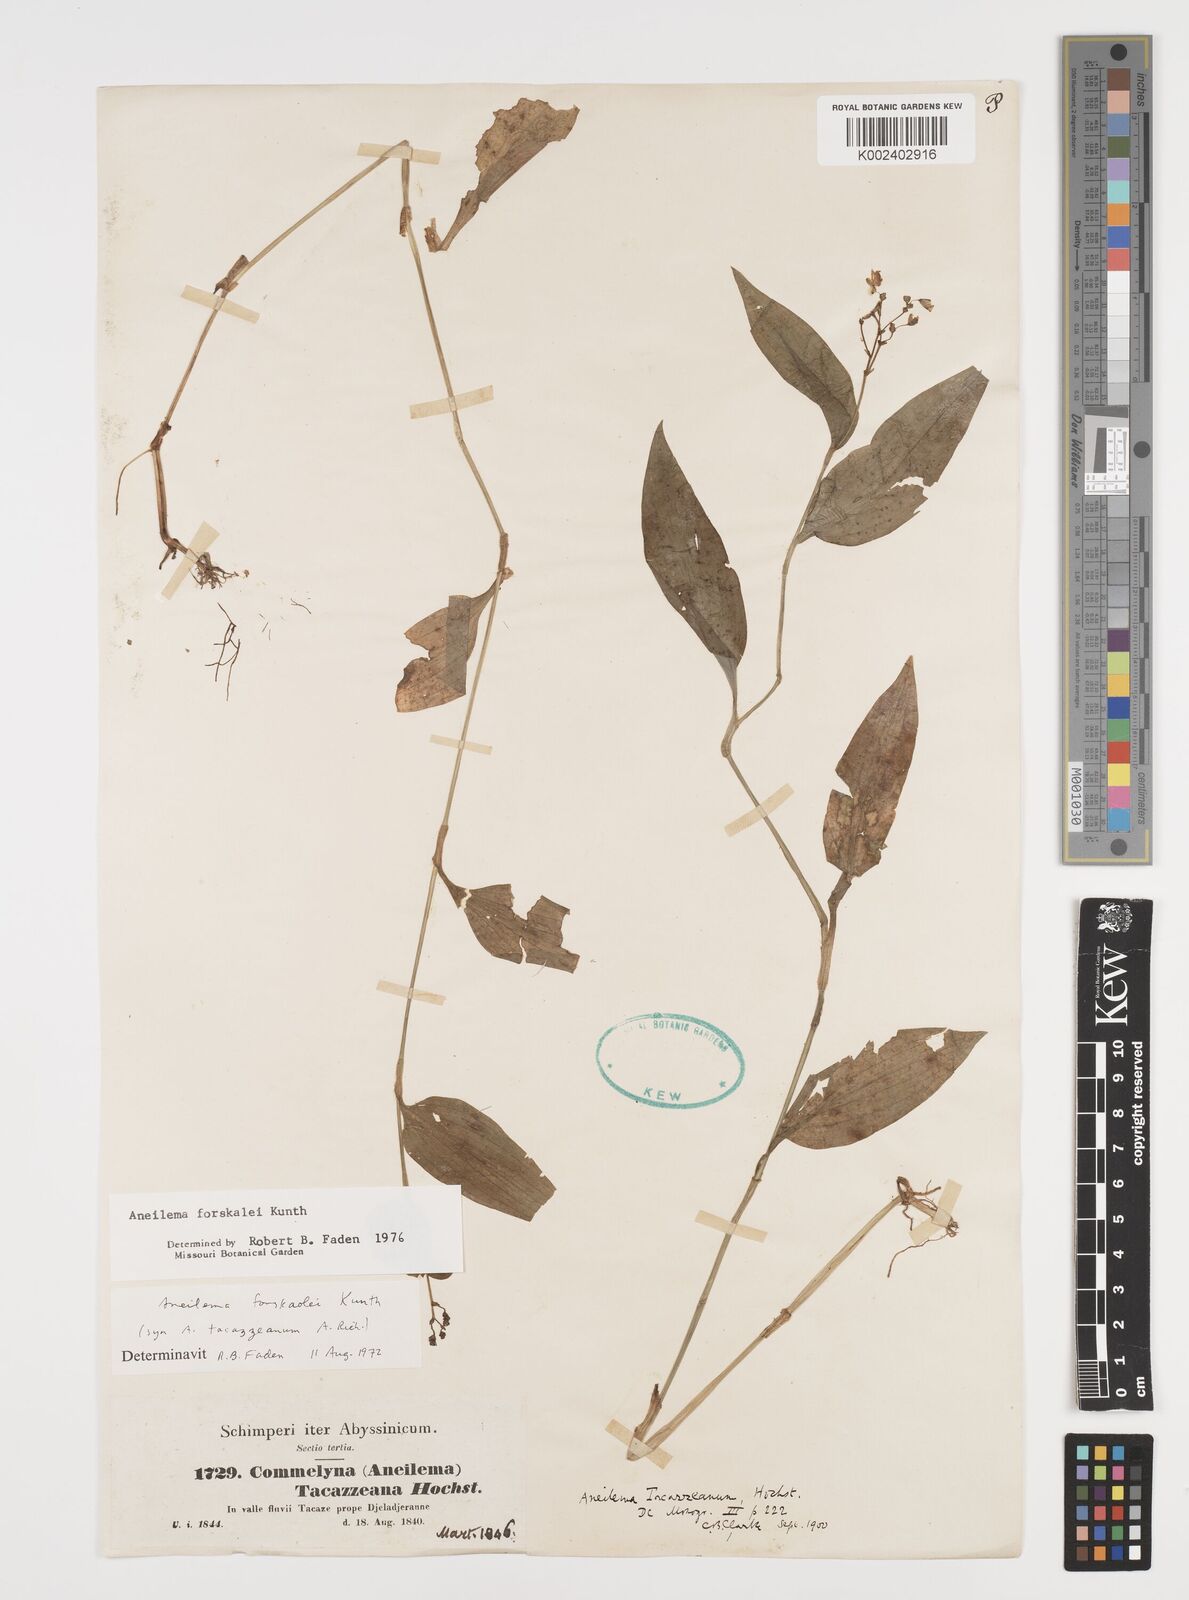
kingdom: Plantae
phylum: Tracheophyta
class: Liliopsida
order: Commelinales
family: Commelinaceae
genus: Aneilema
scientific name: Aneilema forskalii
